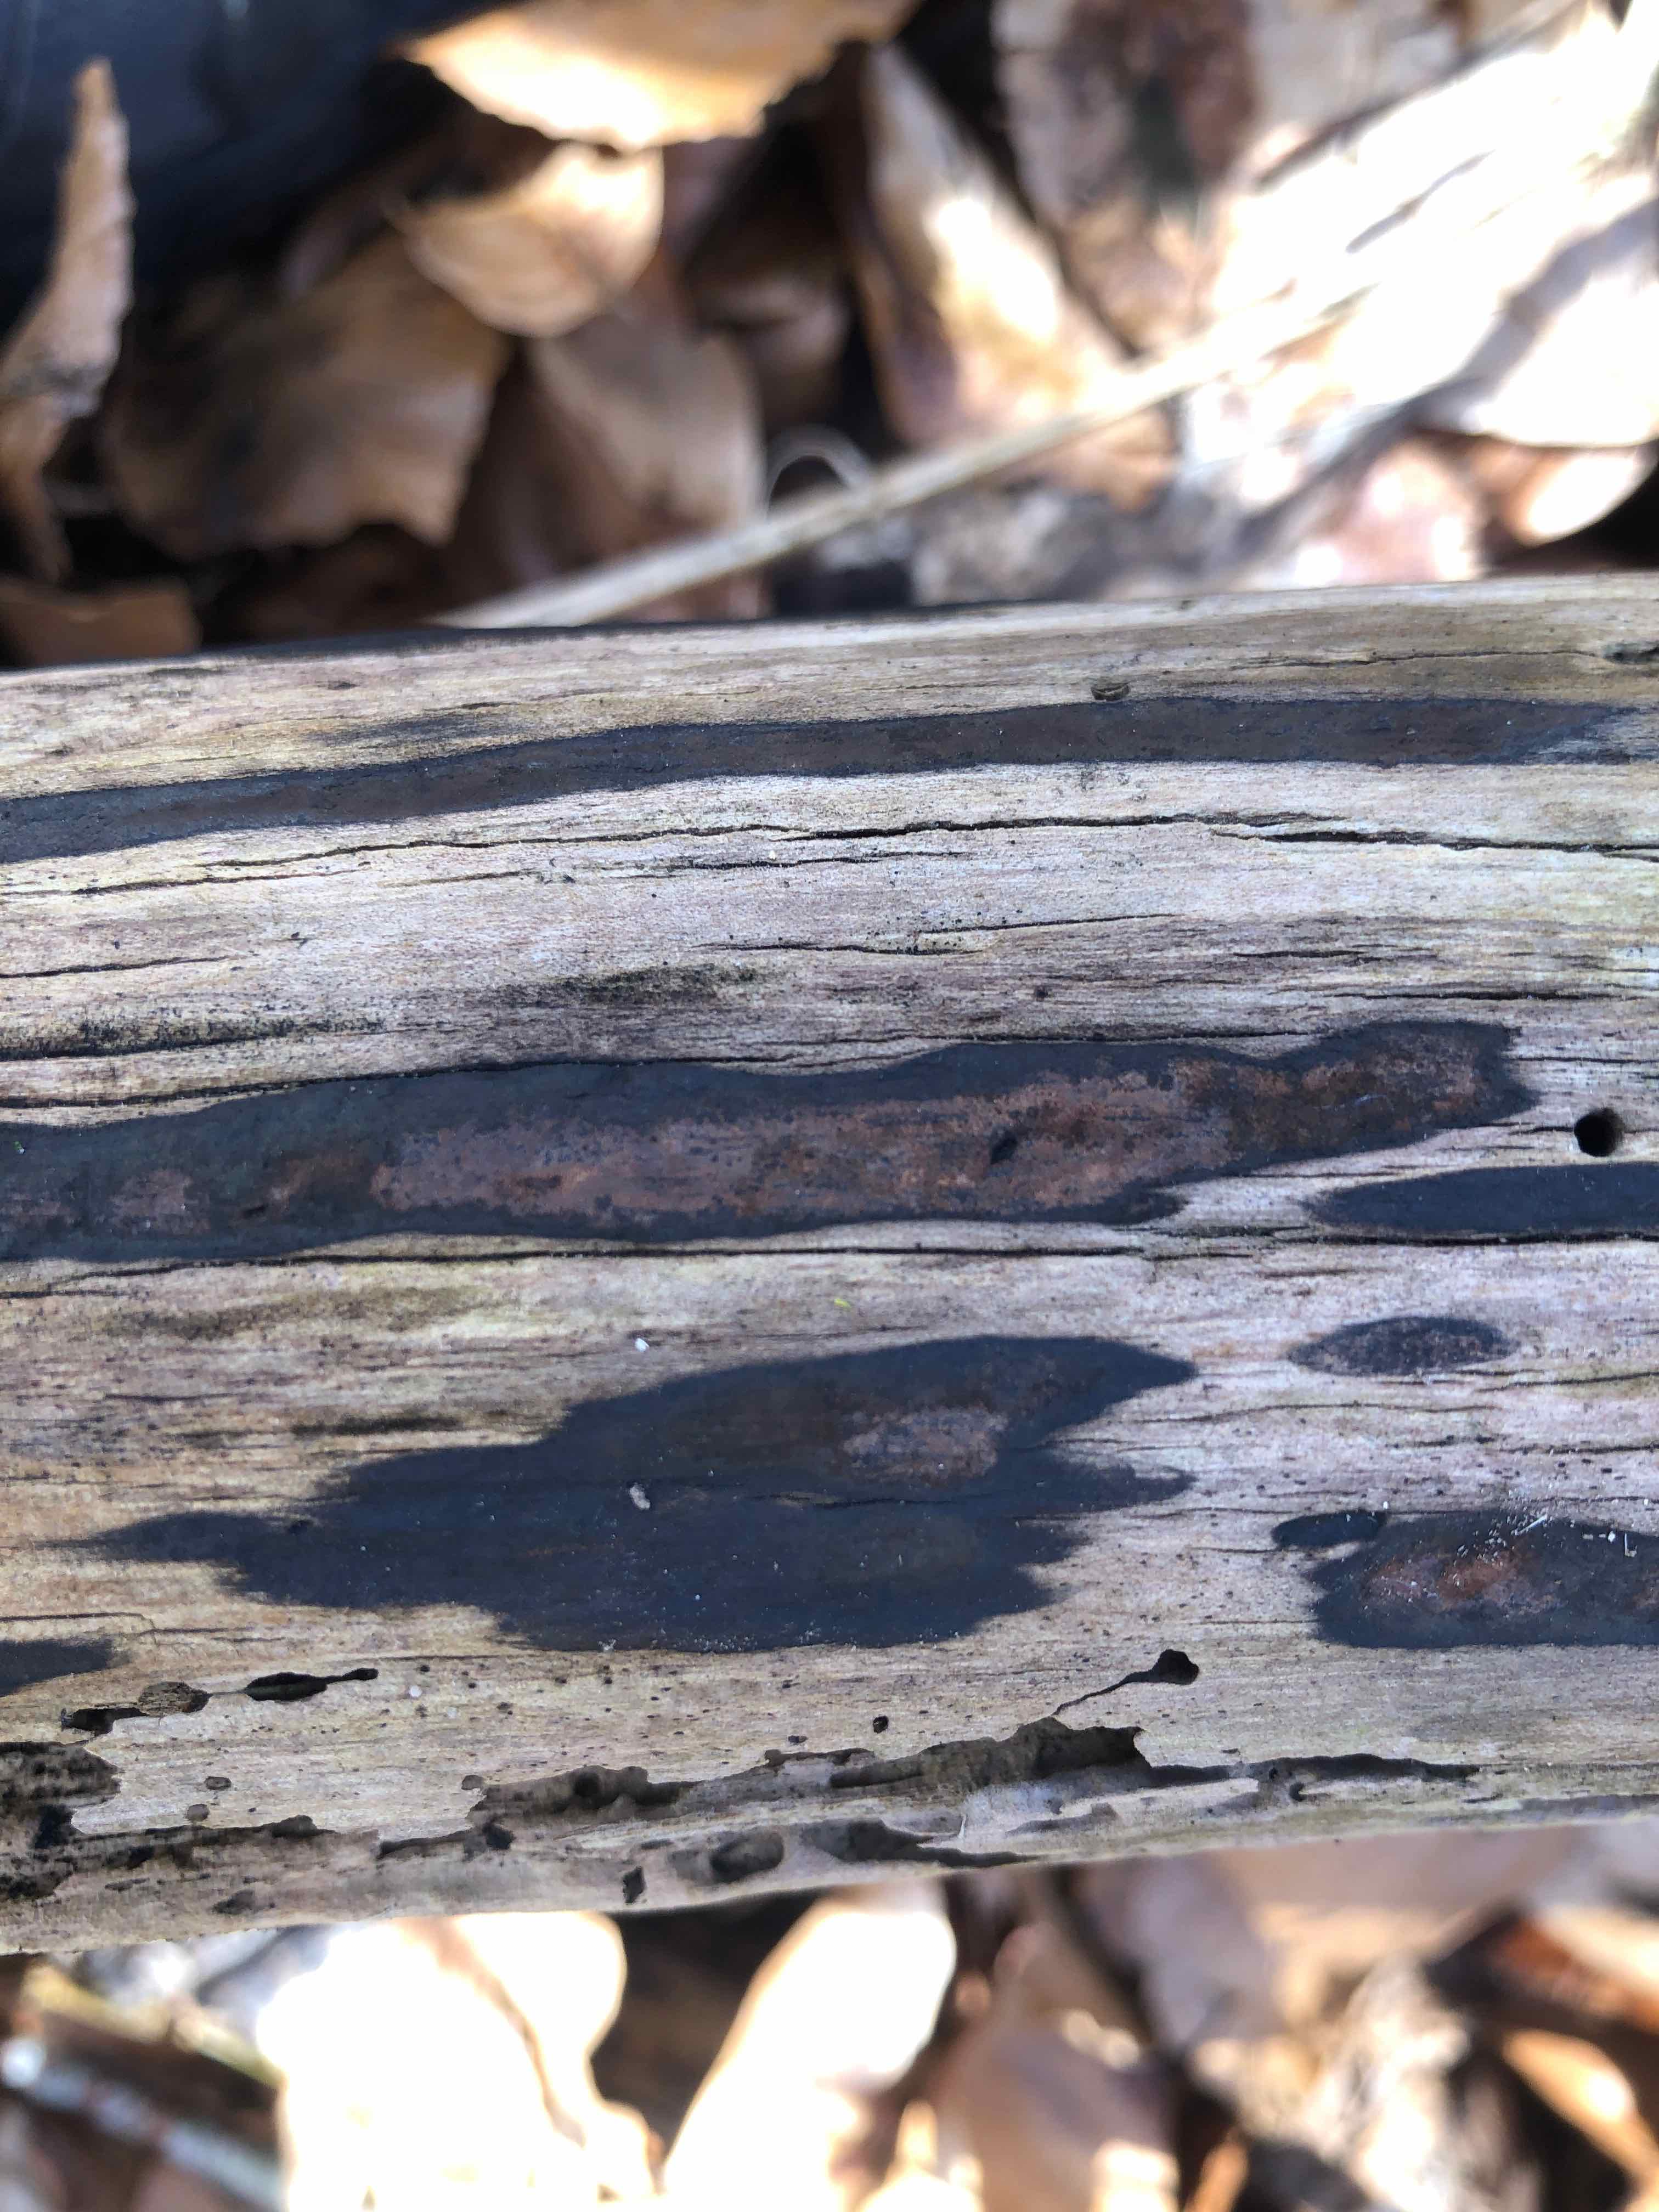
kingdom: Fungi
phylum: Ascomycota
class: Sordariomycetes
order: Xylariales
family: Hypoxylaceae
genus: Hypoxylon
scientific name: Hypoxylon petriniae
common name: nedsænket kulbær
